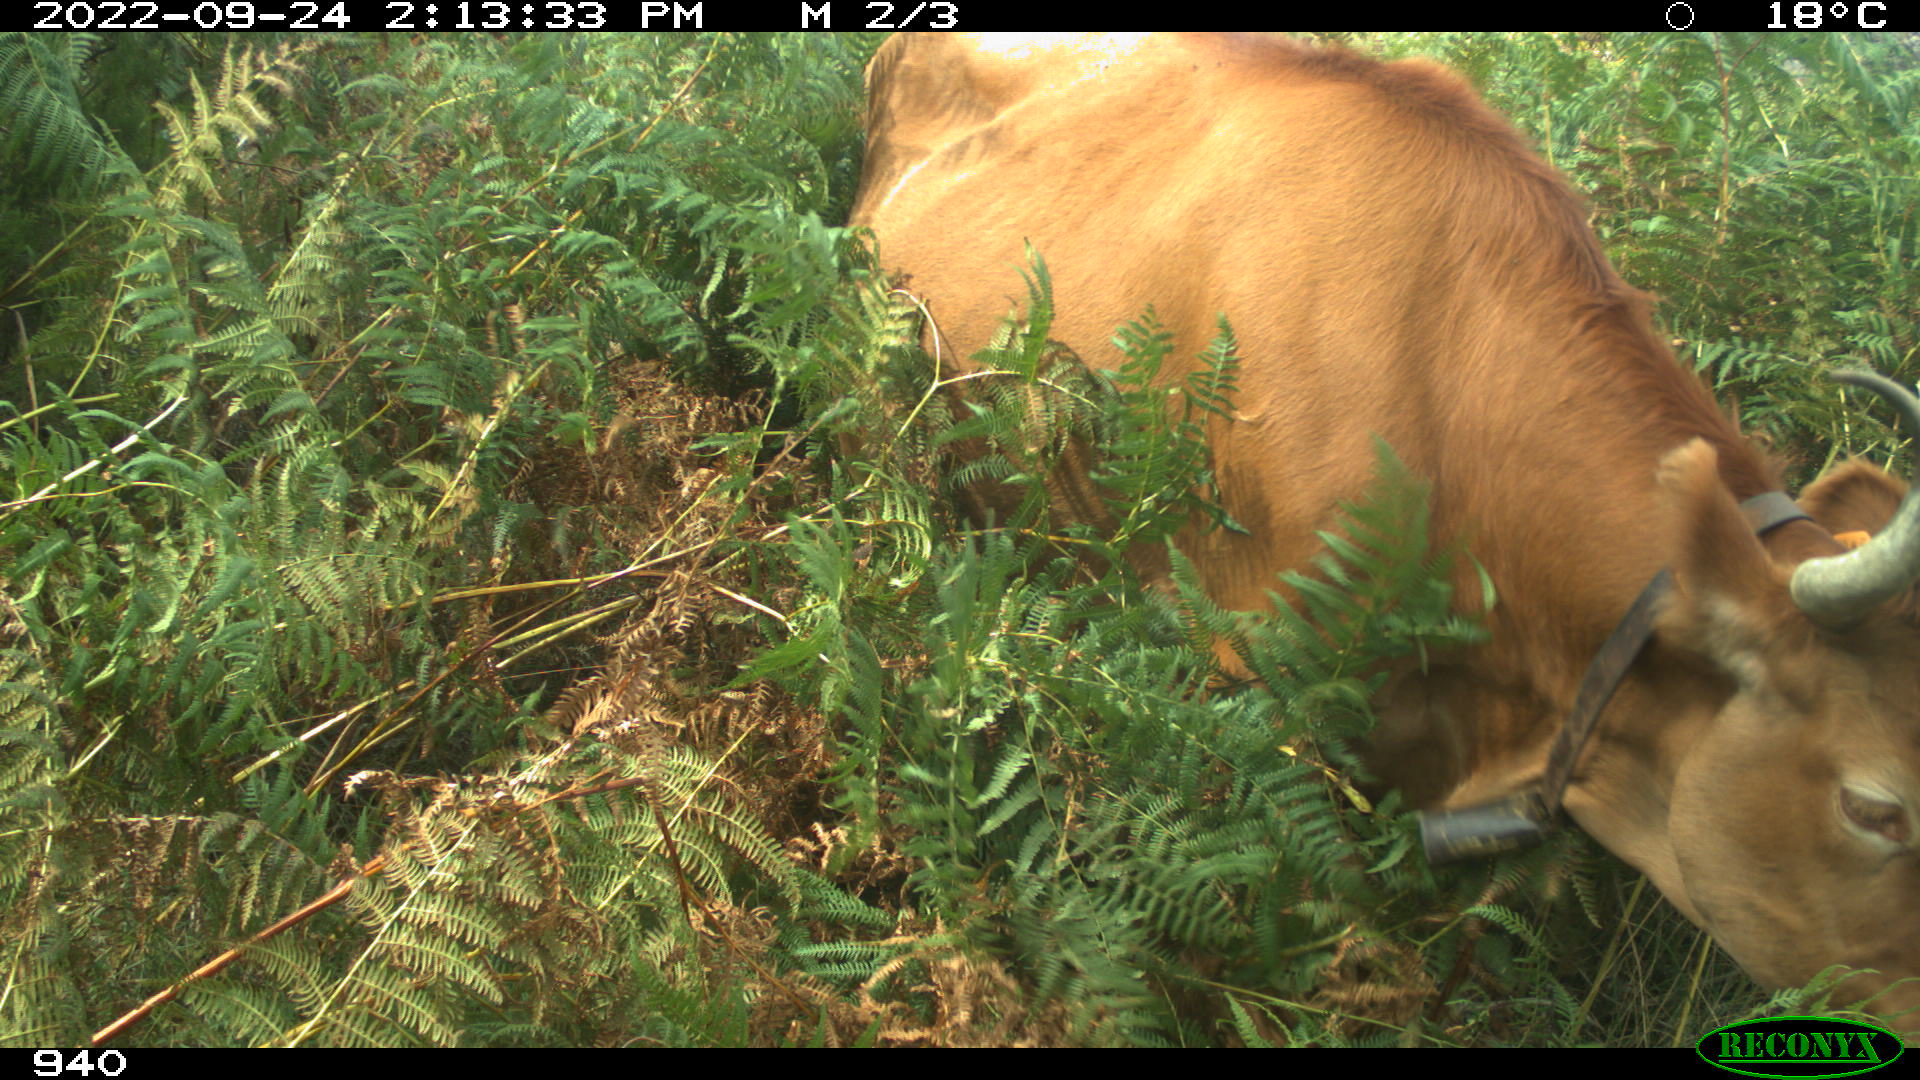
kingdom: Animalia
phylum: Chordata
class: Mammalia
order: Artiodactyla
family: Bovidae
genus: Bos
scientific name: Bos taurus
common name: Domesticated cattle
